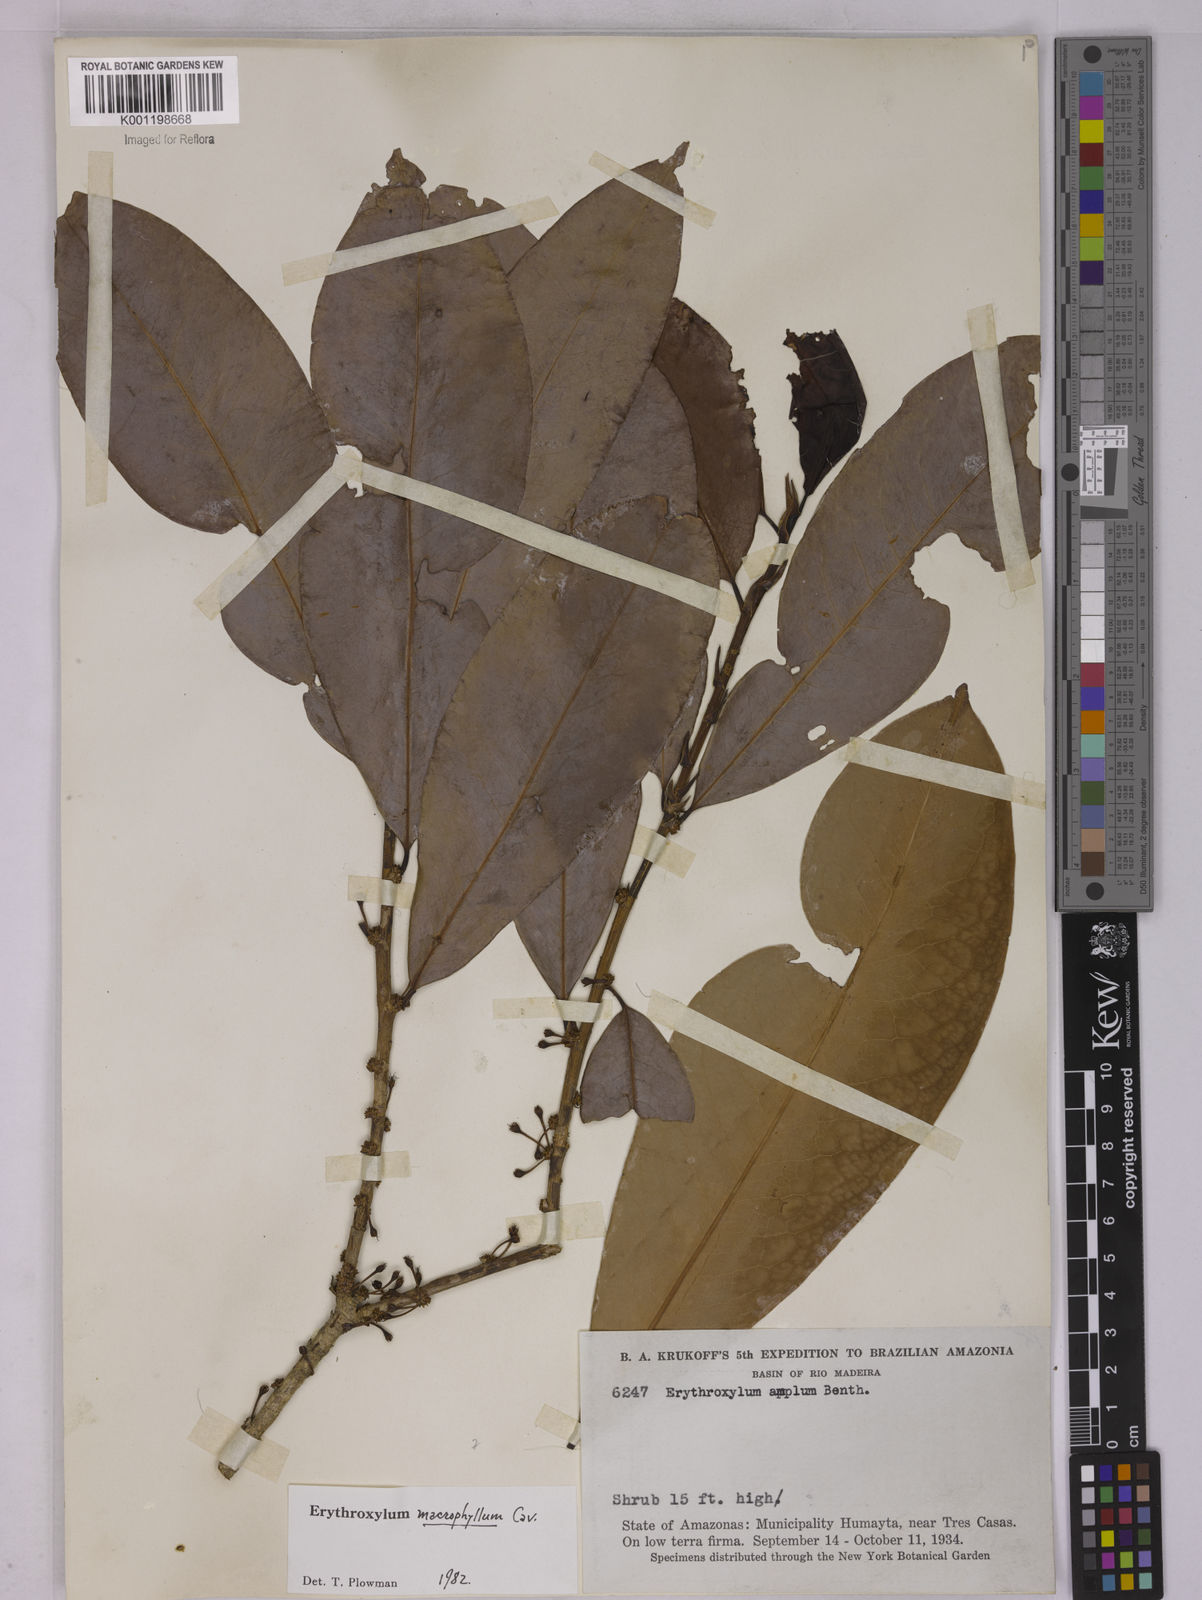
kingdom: Plantae
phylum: Tracheophyta
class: Magnoliopsida
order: Malpighiales
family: Erythroxylaceae
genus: Erythroxylum
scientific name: Erythroxylum macrophyllum
